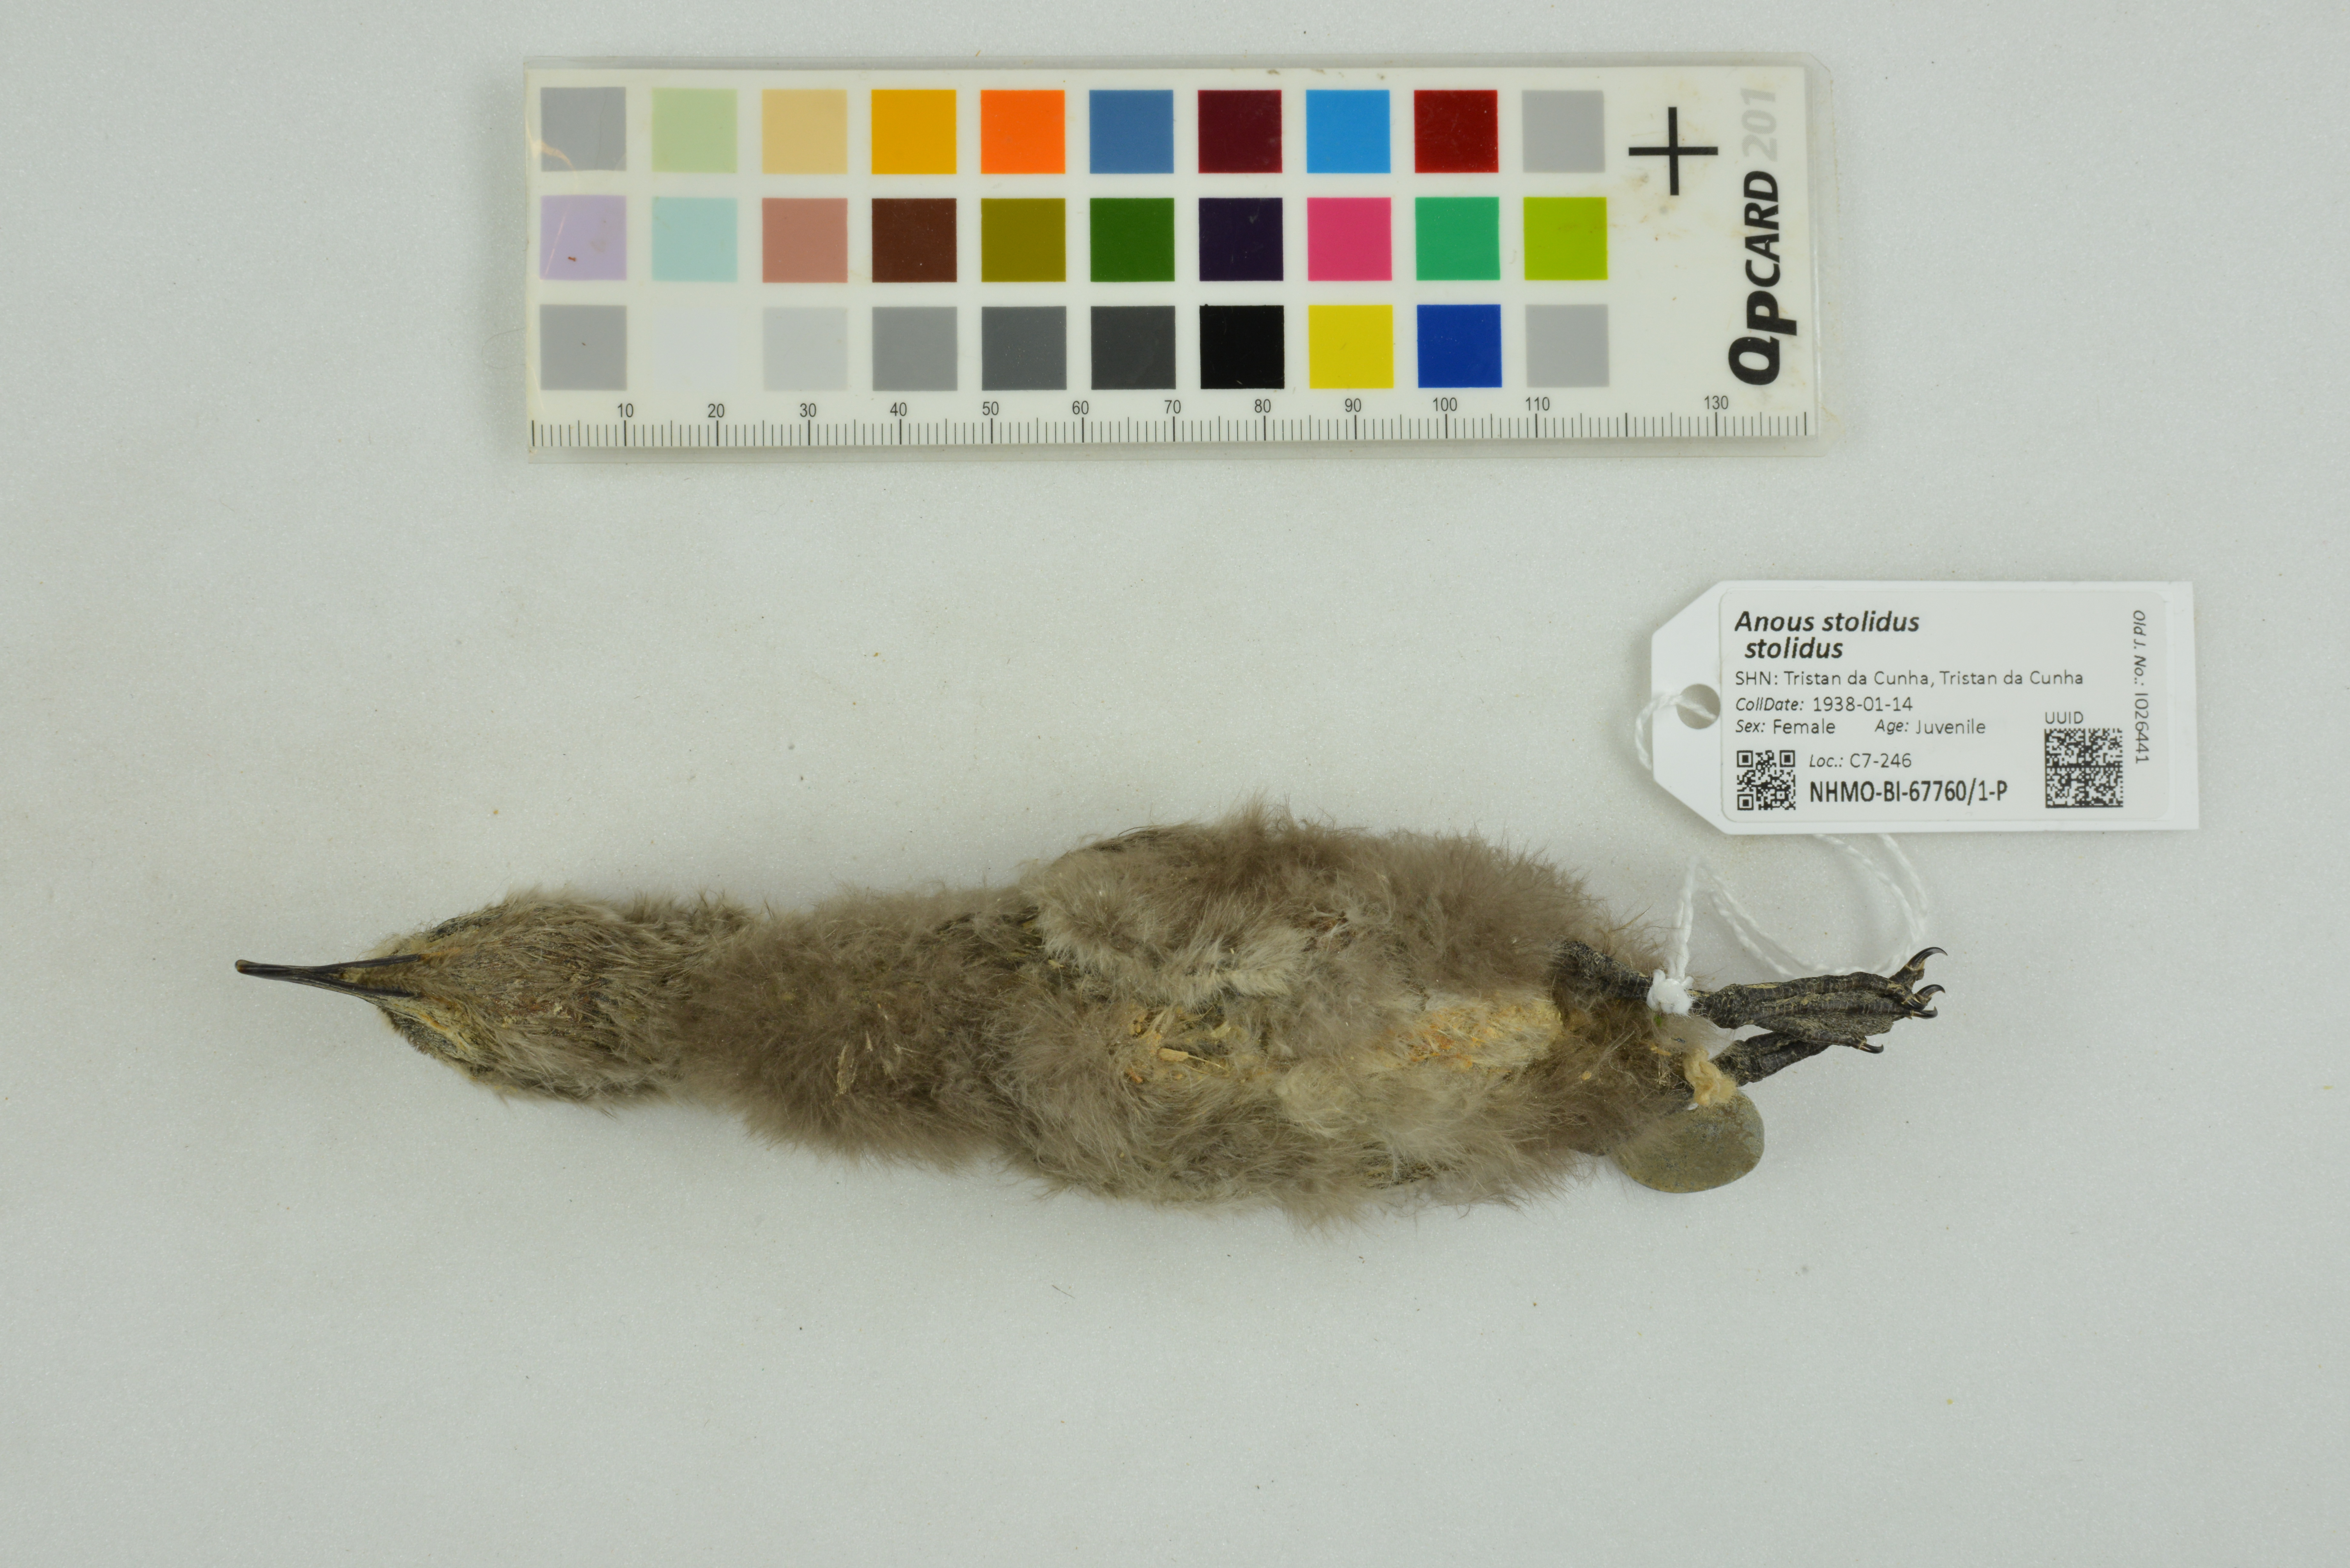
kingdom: Animalia
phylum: Chordata
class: Aves
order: Charadriiformes
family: Laridae
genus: Anous
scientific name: Anous stolidus
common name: Brown noddy
